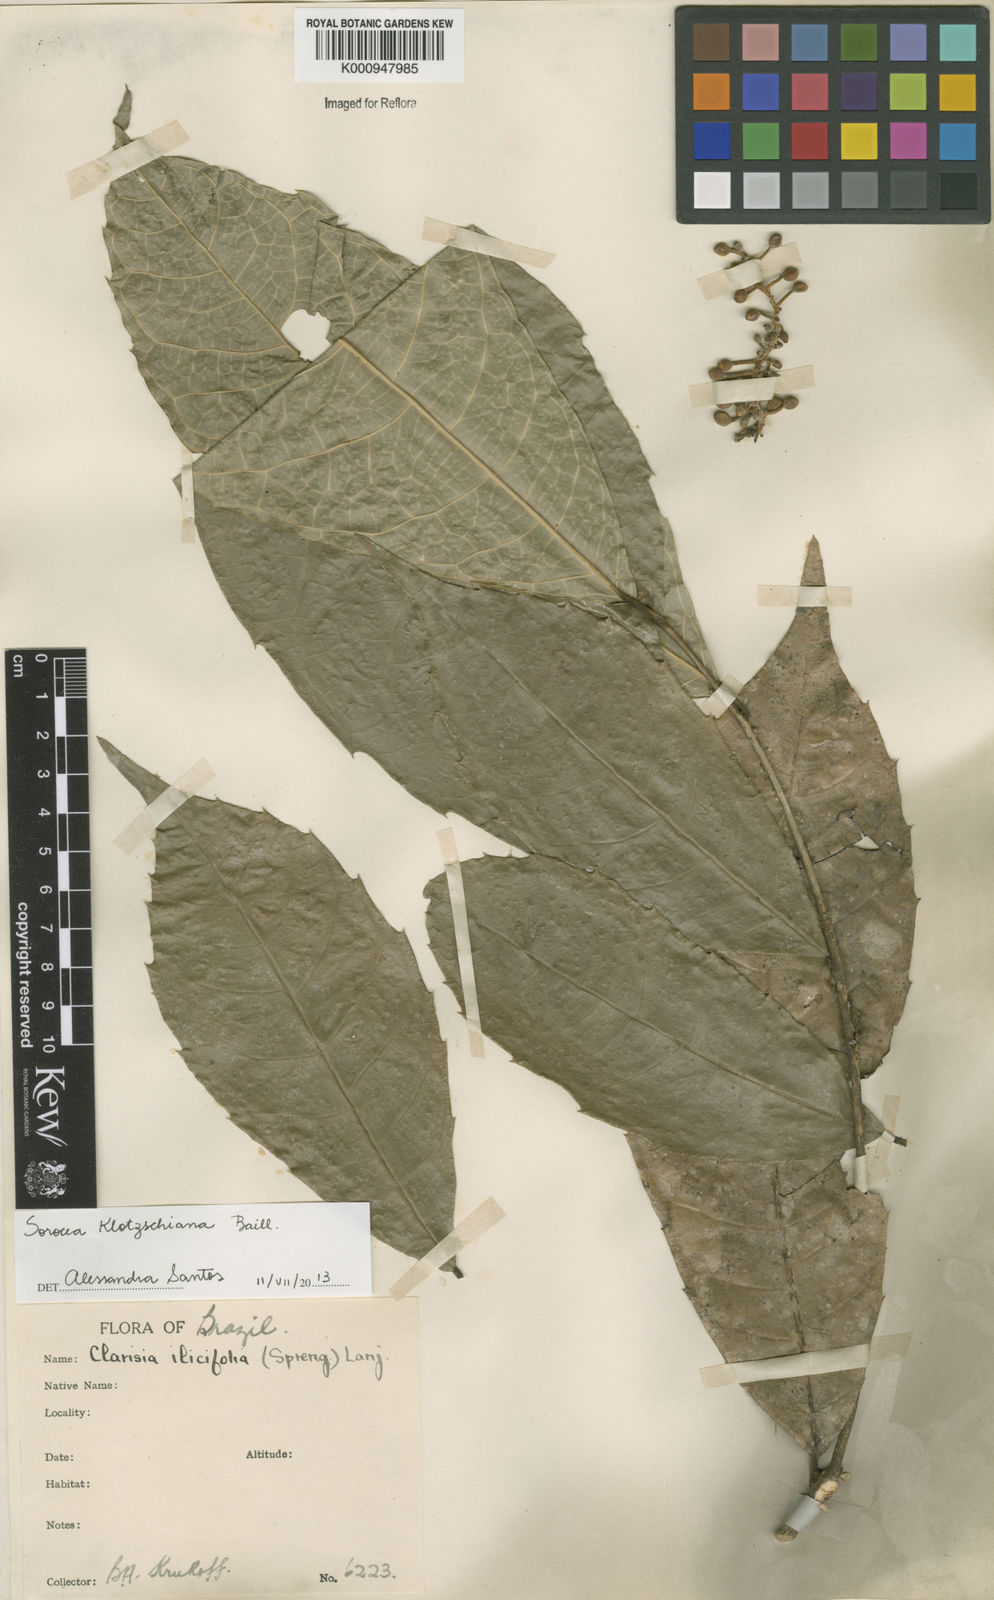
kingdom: Plantae
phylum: Tracheophyta
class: Magnoliopsida
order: Rosales
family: Moraceae
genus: Sorocea
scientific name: Sorocea guilleminiana
